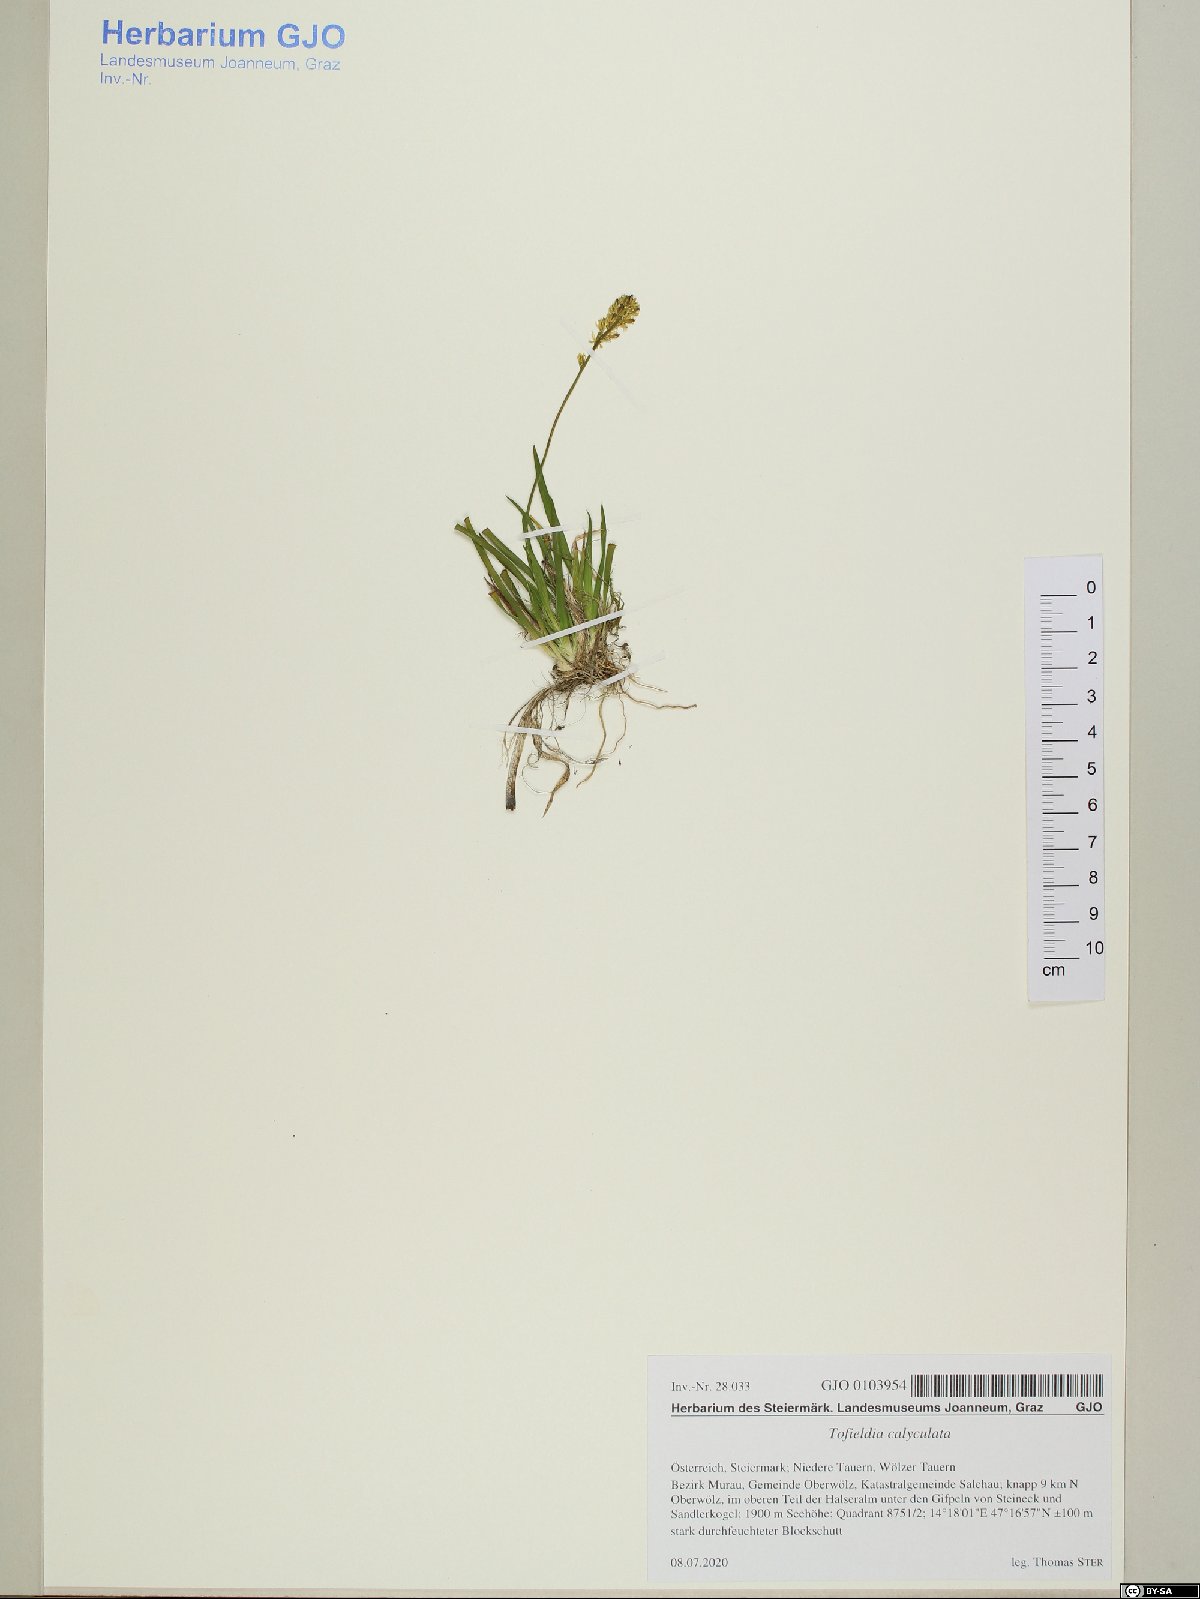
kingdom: Plantae
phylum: Tracheophyta
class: Liliopsida
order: Alismatales
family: Tofieldiaceae
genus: Tofieldia
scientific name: Tofieldia calyculata
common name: German-asphodel
